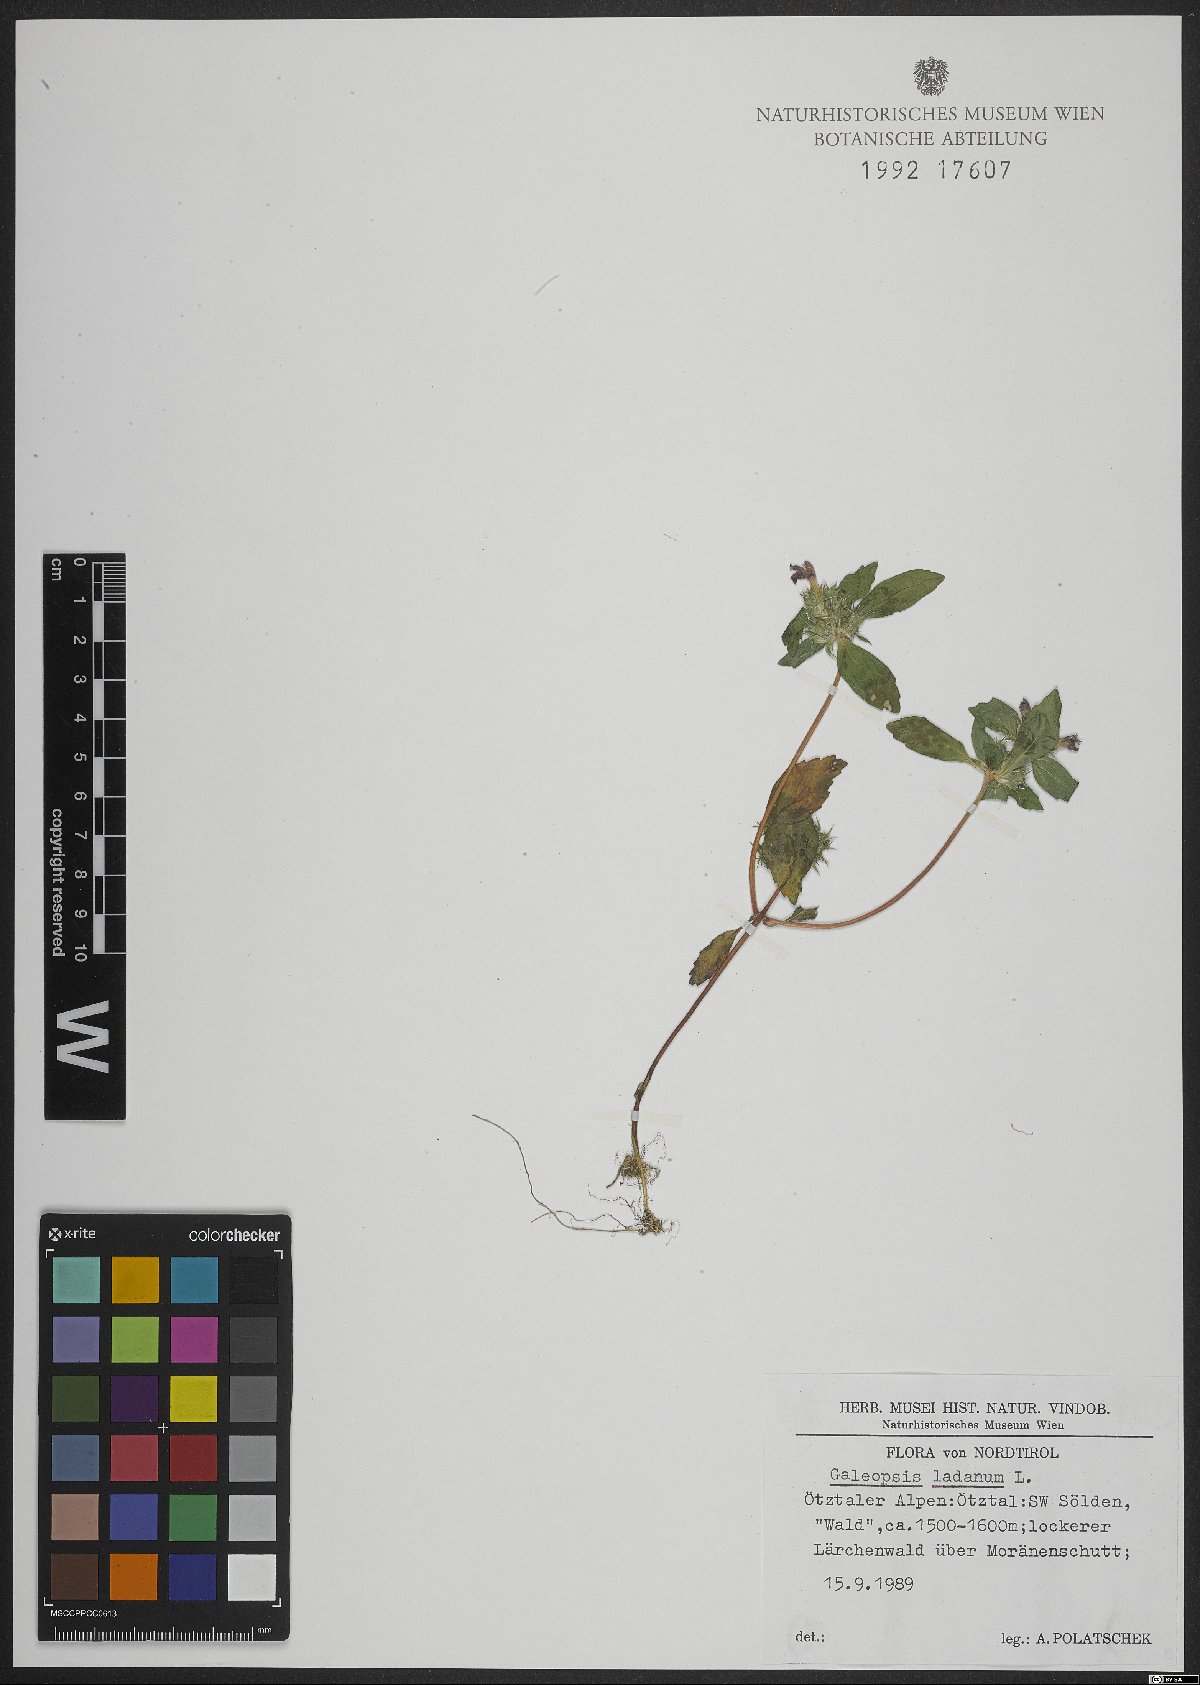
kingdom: Plantae
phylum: Tracheophyta
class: Magnoliopsida
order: Lamiales
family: Lamiaceae
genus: Galeopsis
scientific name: Galeopsis ladanum
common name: Broad-leaved hemp-nettle
